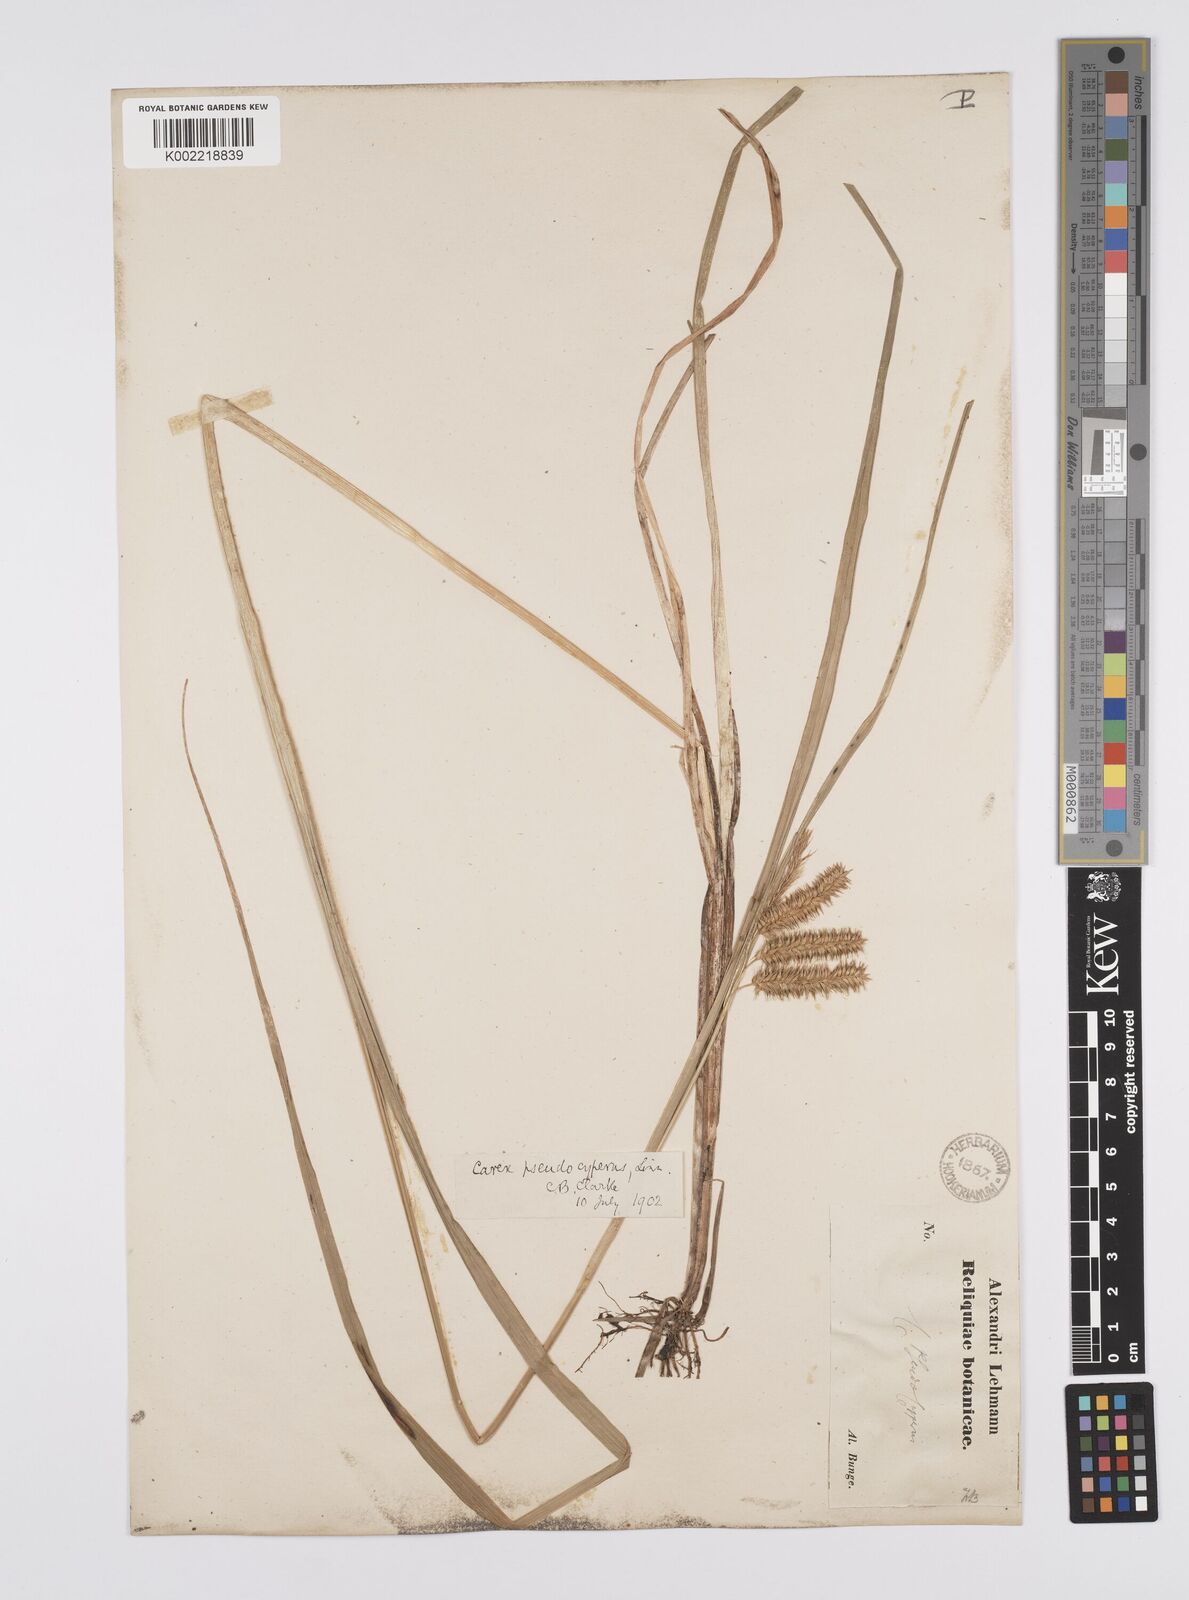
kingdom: Plantae
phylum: Tracheophyta
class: Liliopsida
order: Poales
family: Cyperaceae
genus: Carex
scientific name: Carex pseudocyperus
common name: Cyperus sedge
